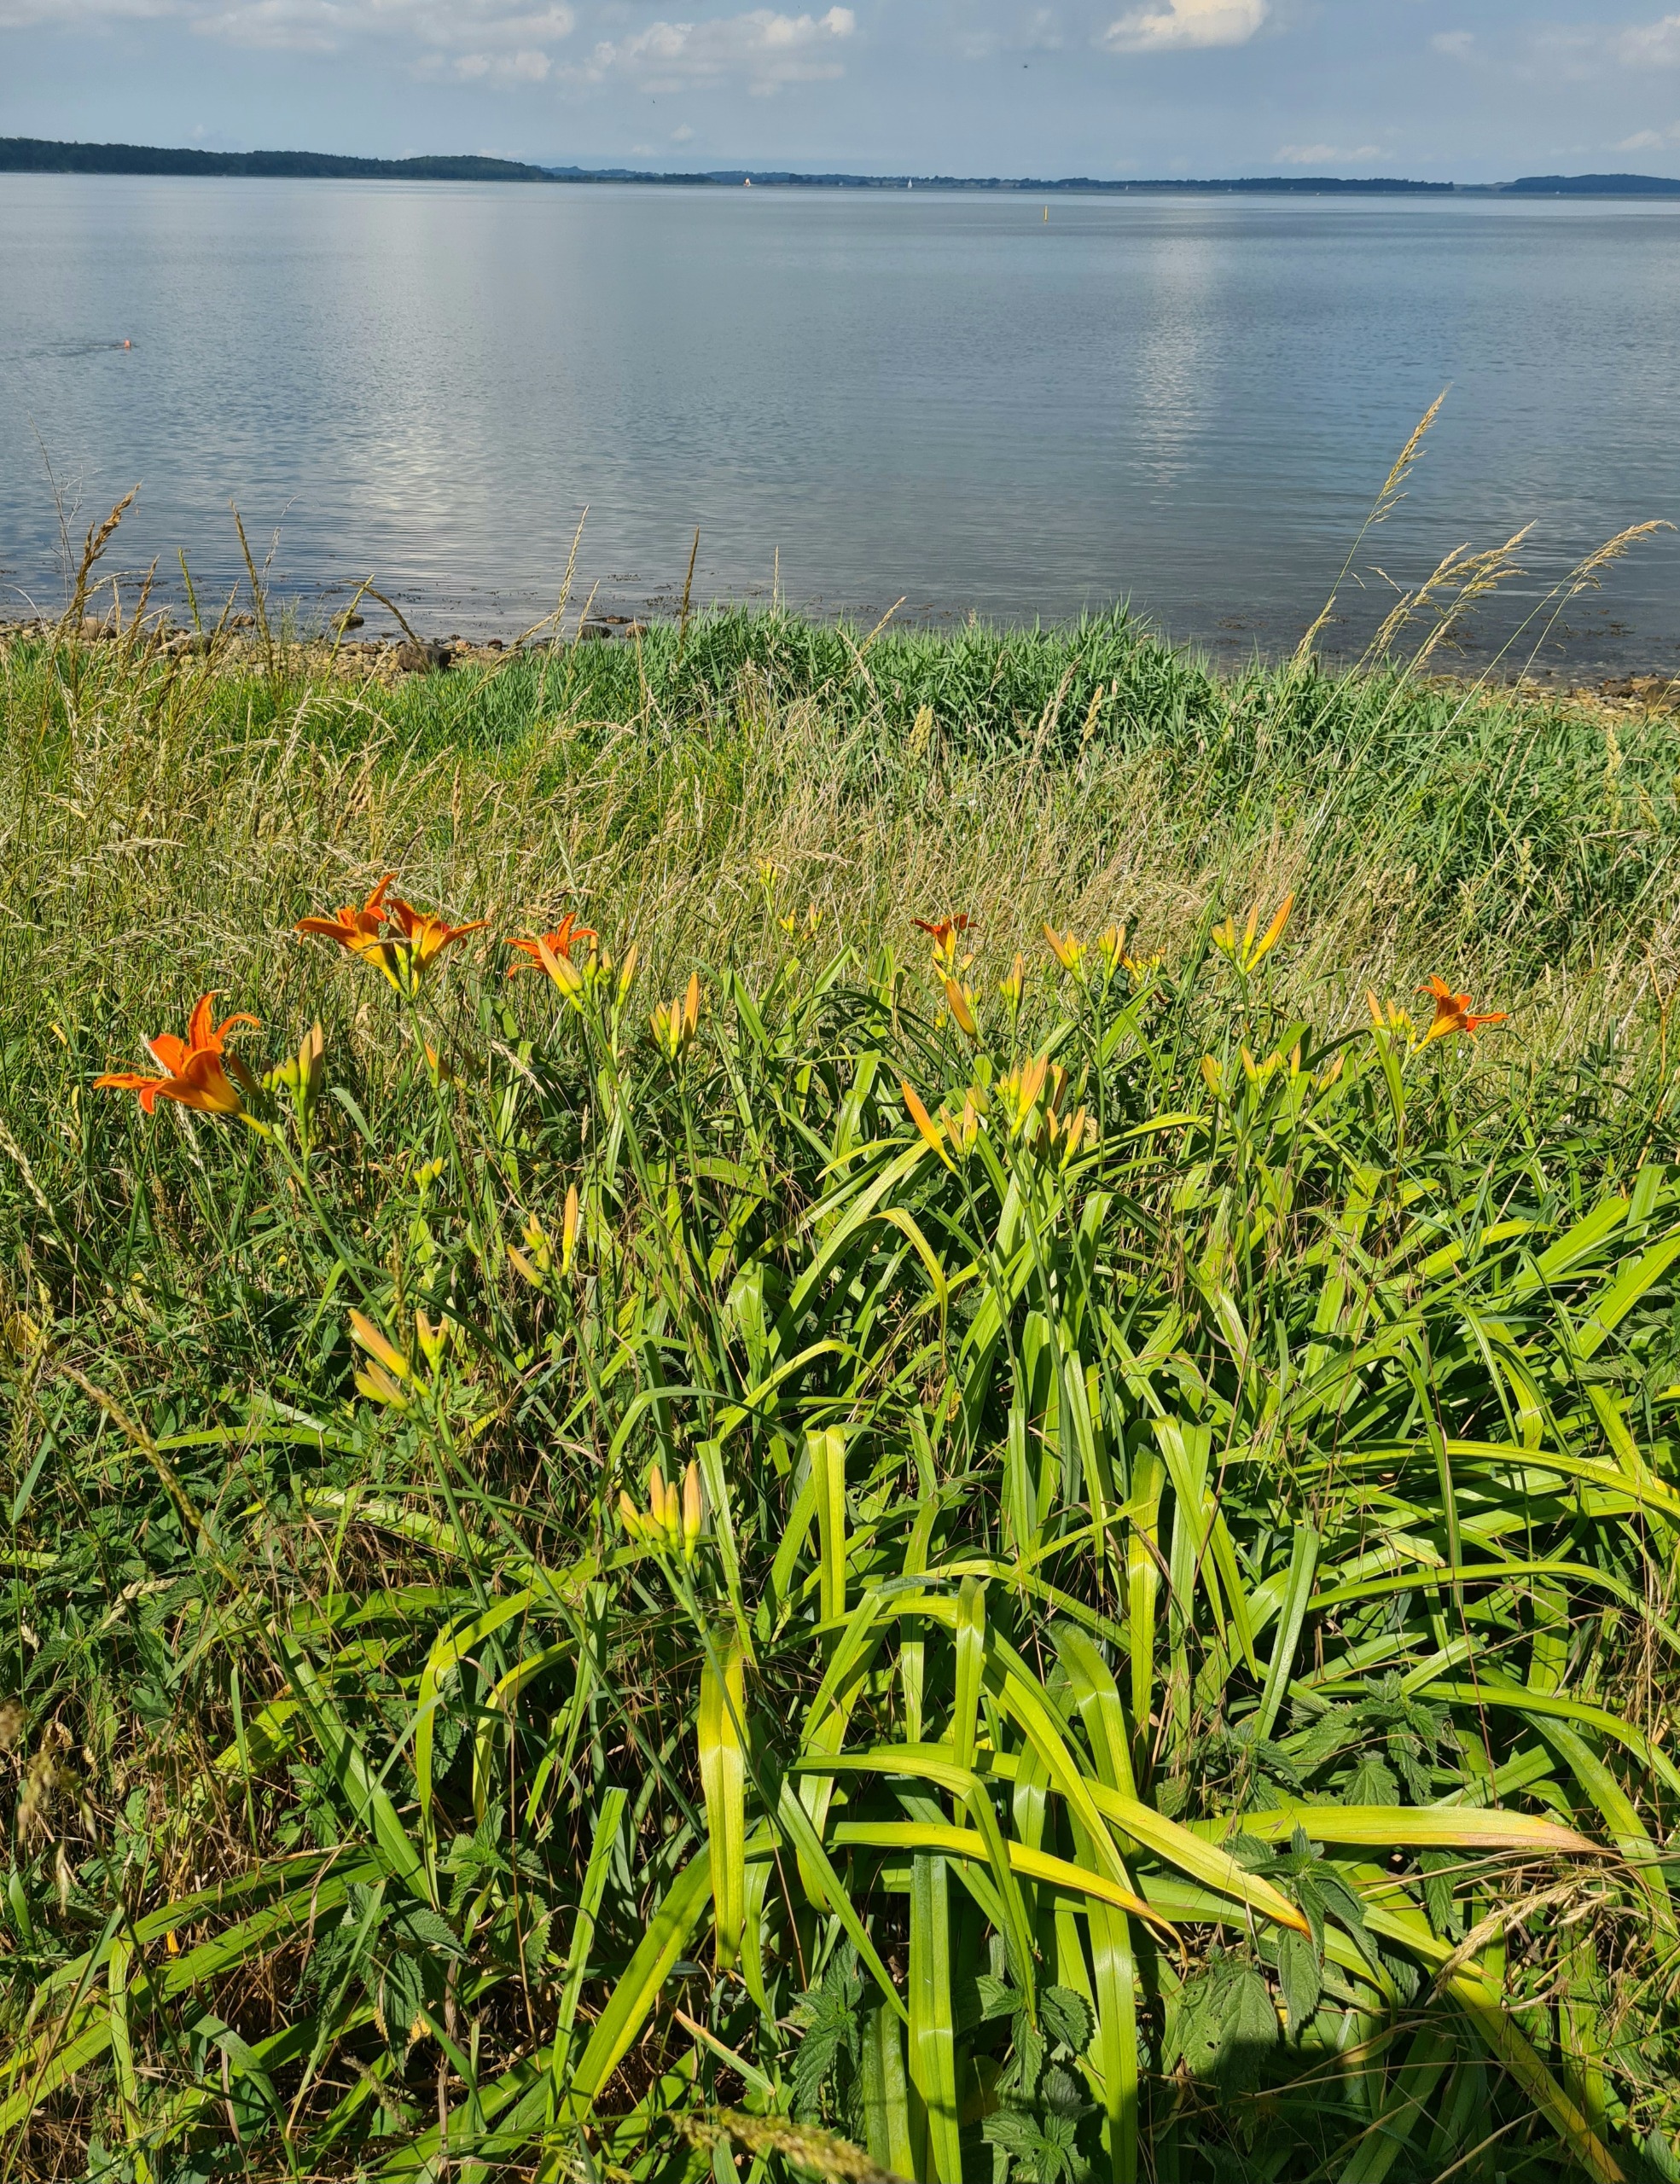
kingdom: Plantae
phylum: Tracheophyta
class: Liliopsida
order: Asparagales
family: Asphodelaceae
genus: Hemerocallis
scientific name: Hemerocallis fulva
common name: Rødgul daglilje
